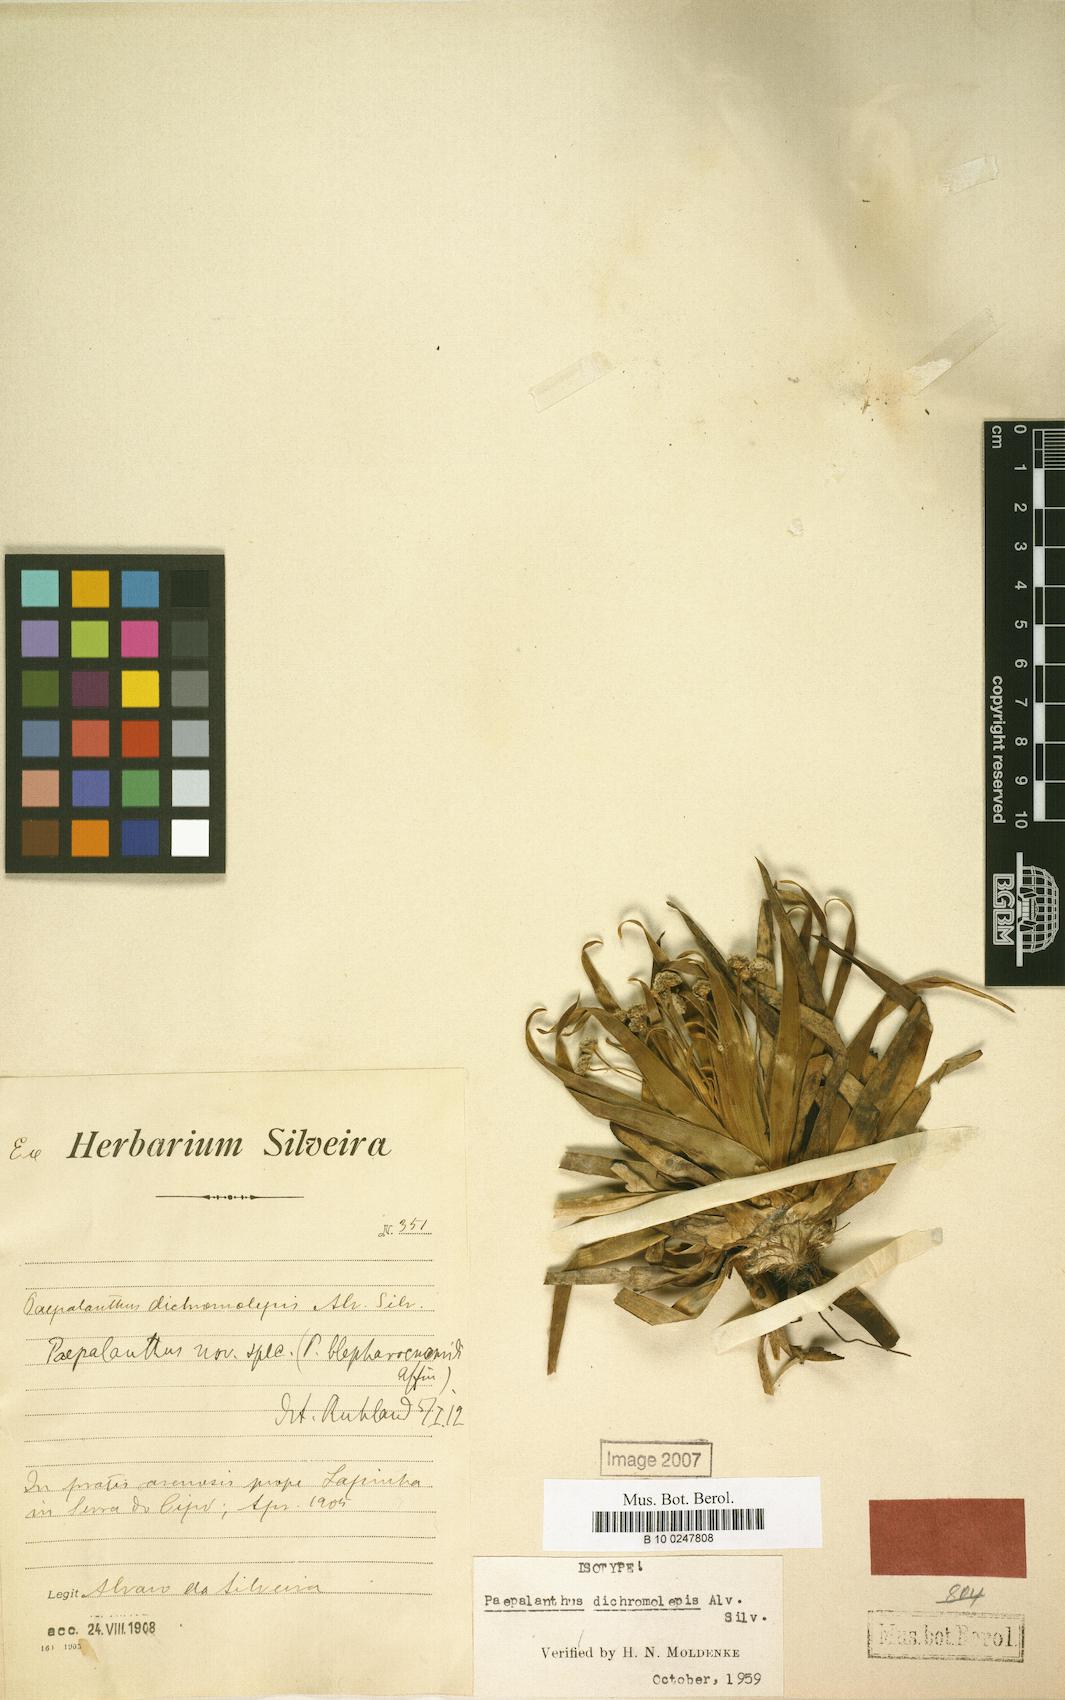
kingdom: Plantae
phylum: Tracheophyta
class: Liliopsida
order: Poales
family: Eriocaulaceae
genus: Paepalanthus
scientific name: Paepalanthus dichromolepis
